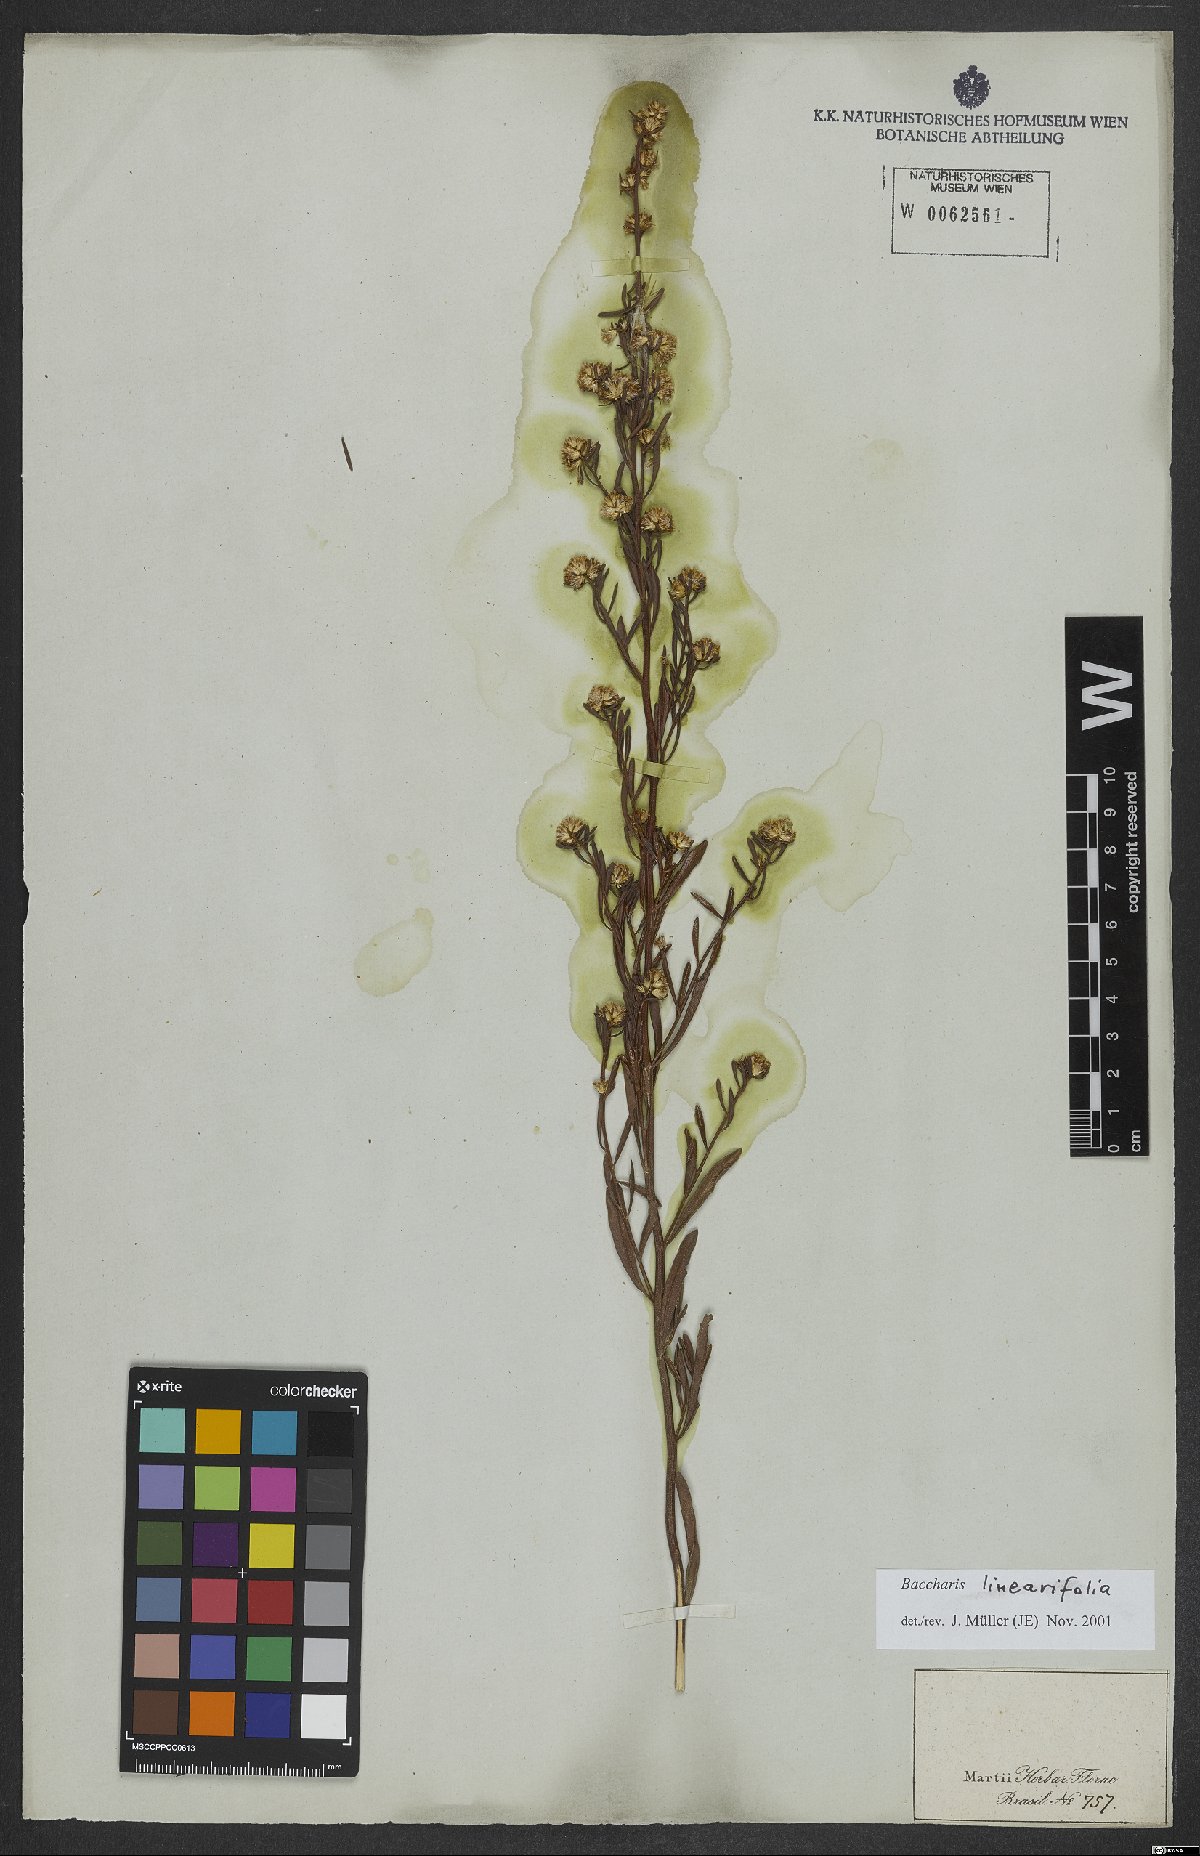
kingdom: Plantae
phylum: Tracheophyta
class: Magnoliopsida
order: Asterales
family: Asteraceae
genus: Baccharis
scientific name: Baccharis linearifolia
